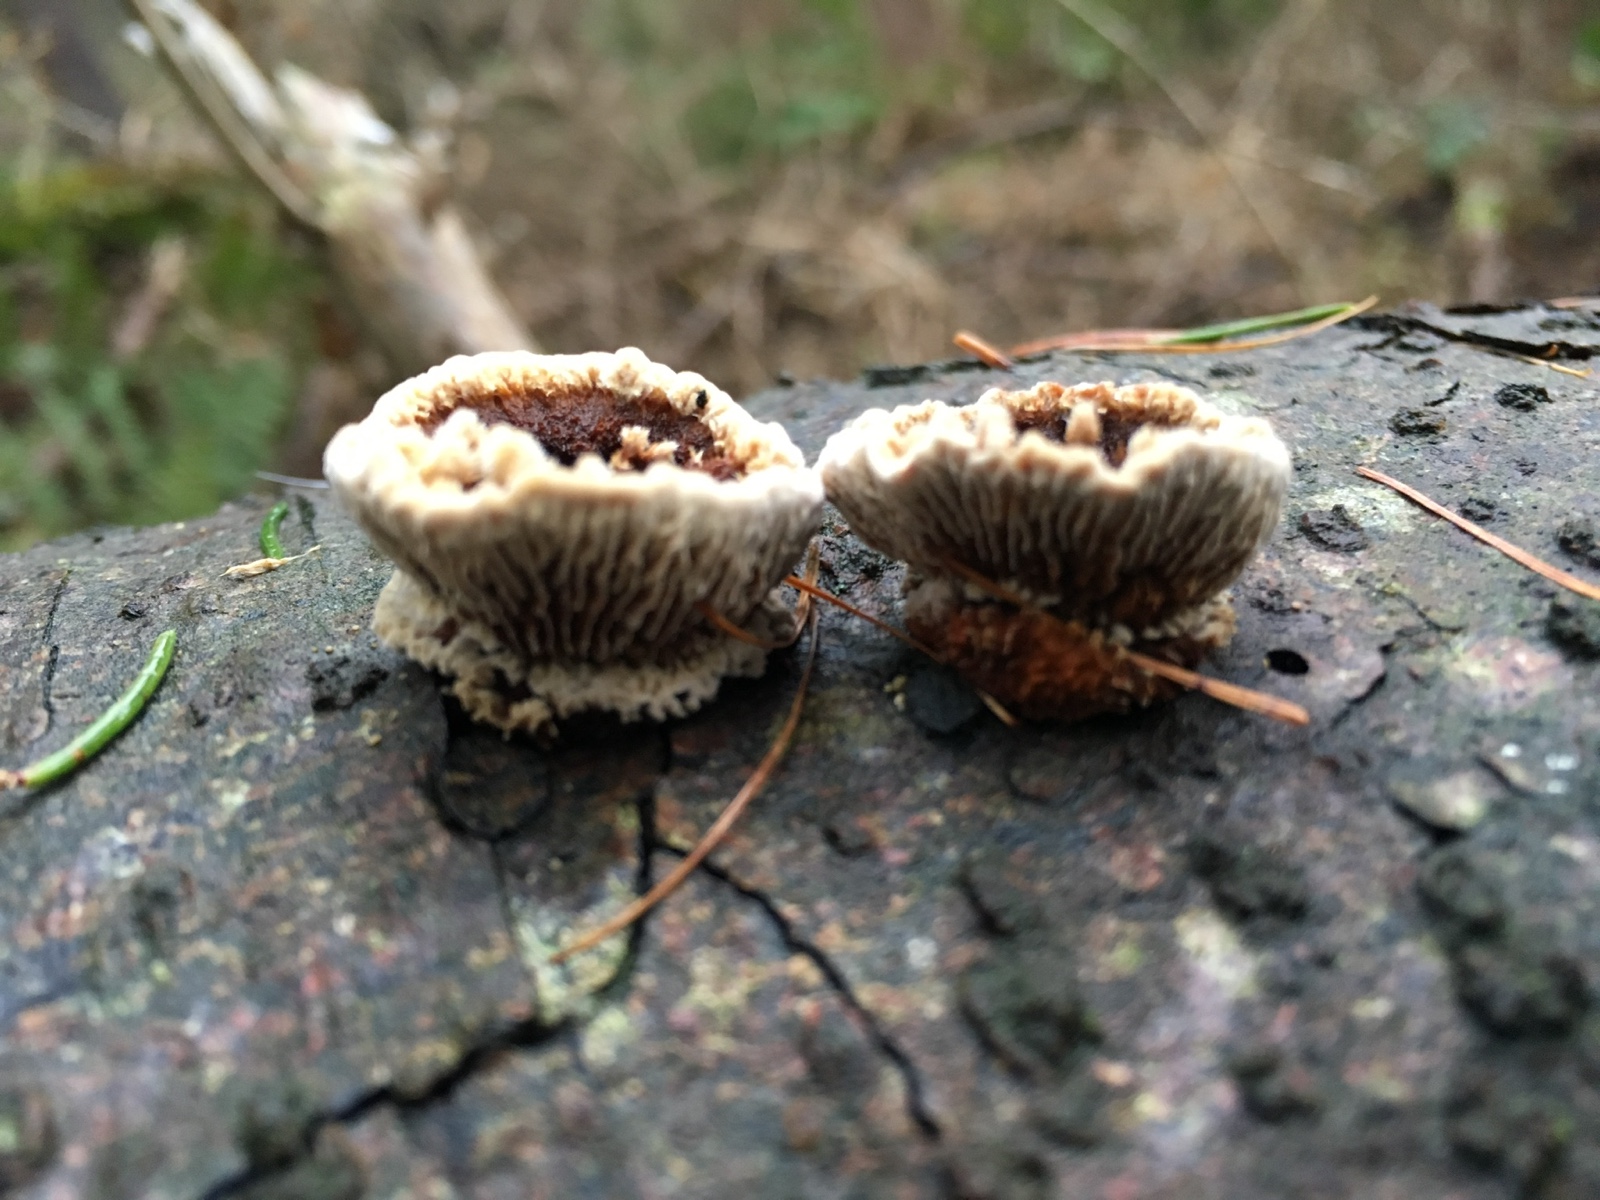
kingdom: Fungi
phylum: Basidiomycota
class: Agaricomycetes
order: Gloeophyllales
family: Gloeophyllaceae
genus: Gloeophyllum
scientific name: Gloeophyllum sepiarium
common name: fyrre-korkhat
